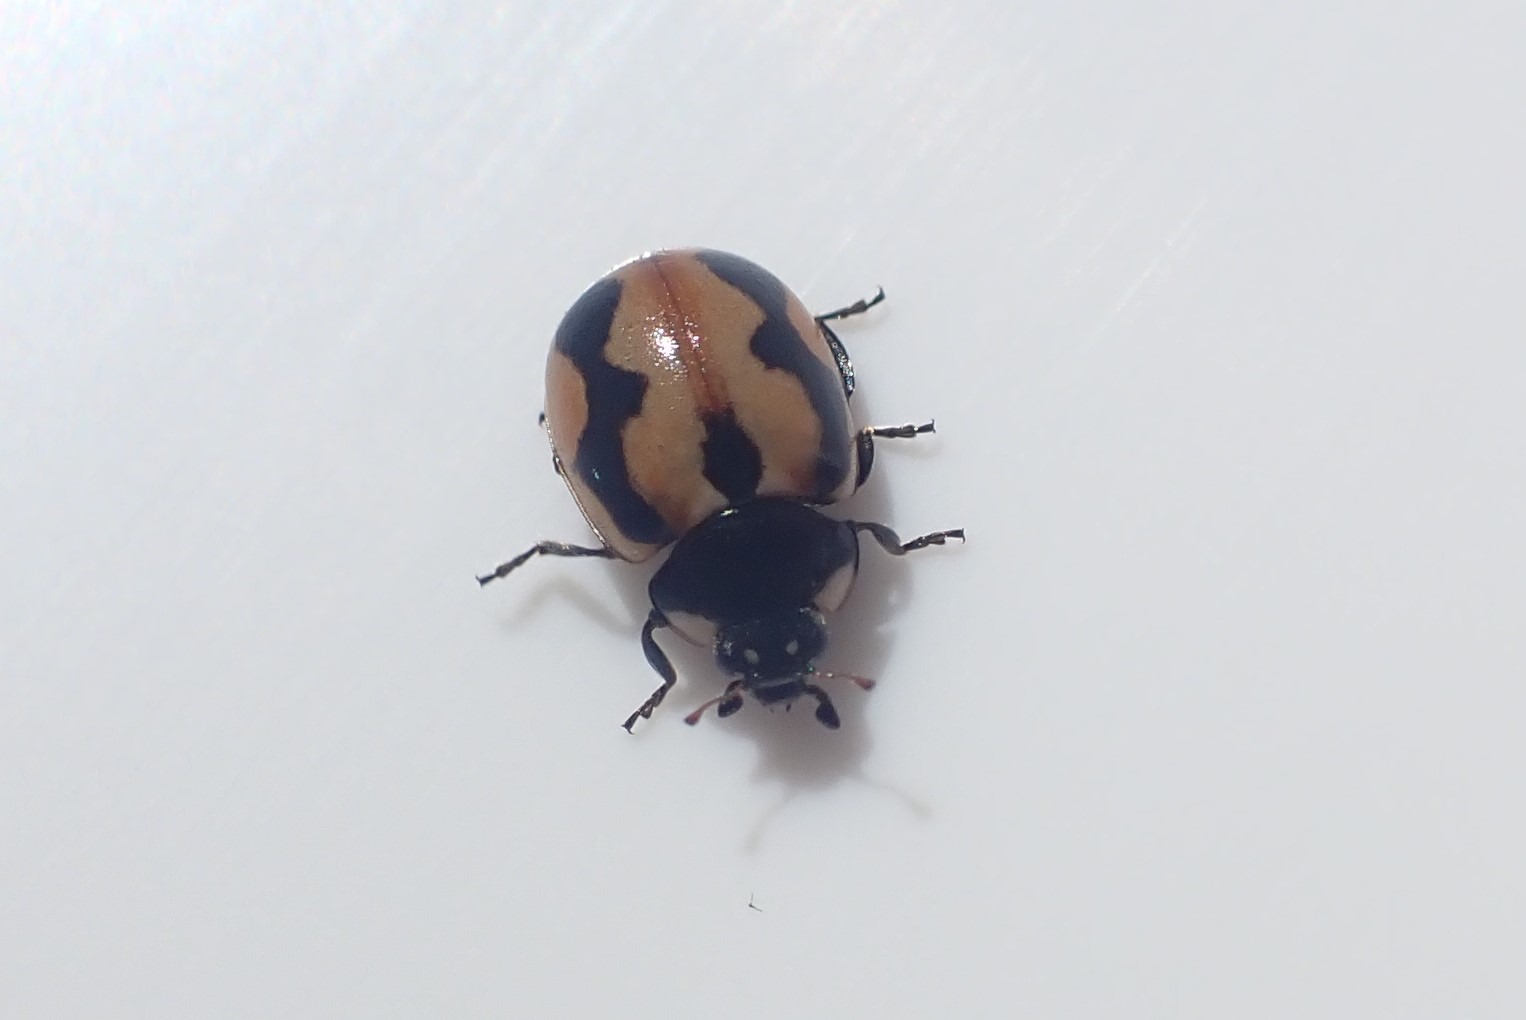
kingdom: Animalia
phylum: Arthropoda
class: Insecta
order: Coleoptera
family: Coccinellidae
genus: Coccinella
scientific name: Coccinella hieroglyphica
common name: Hieroglyf-mariehøne
